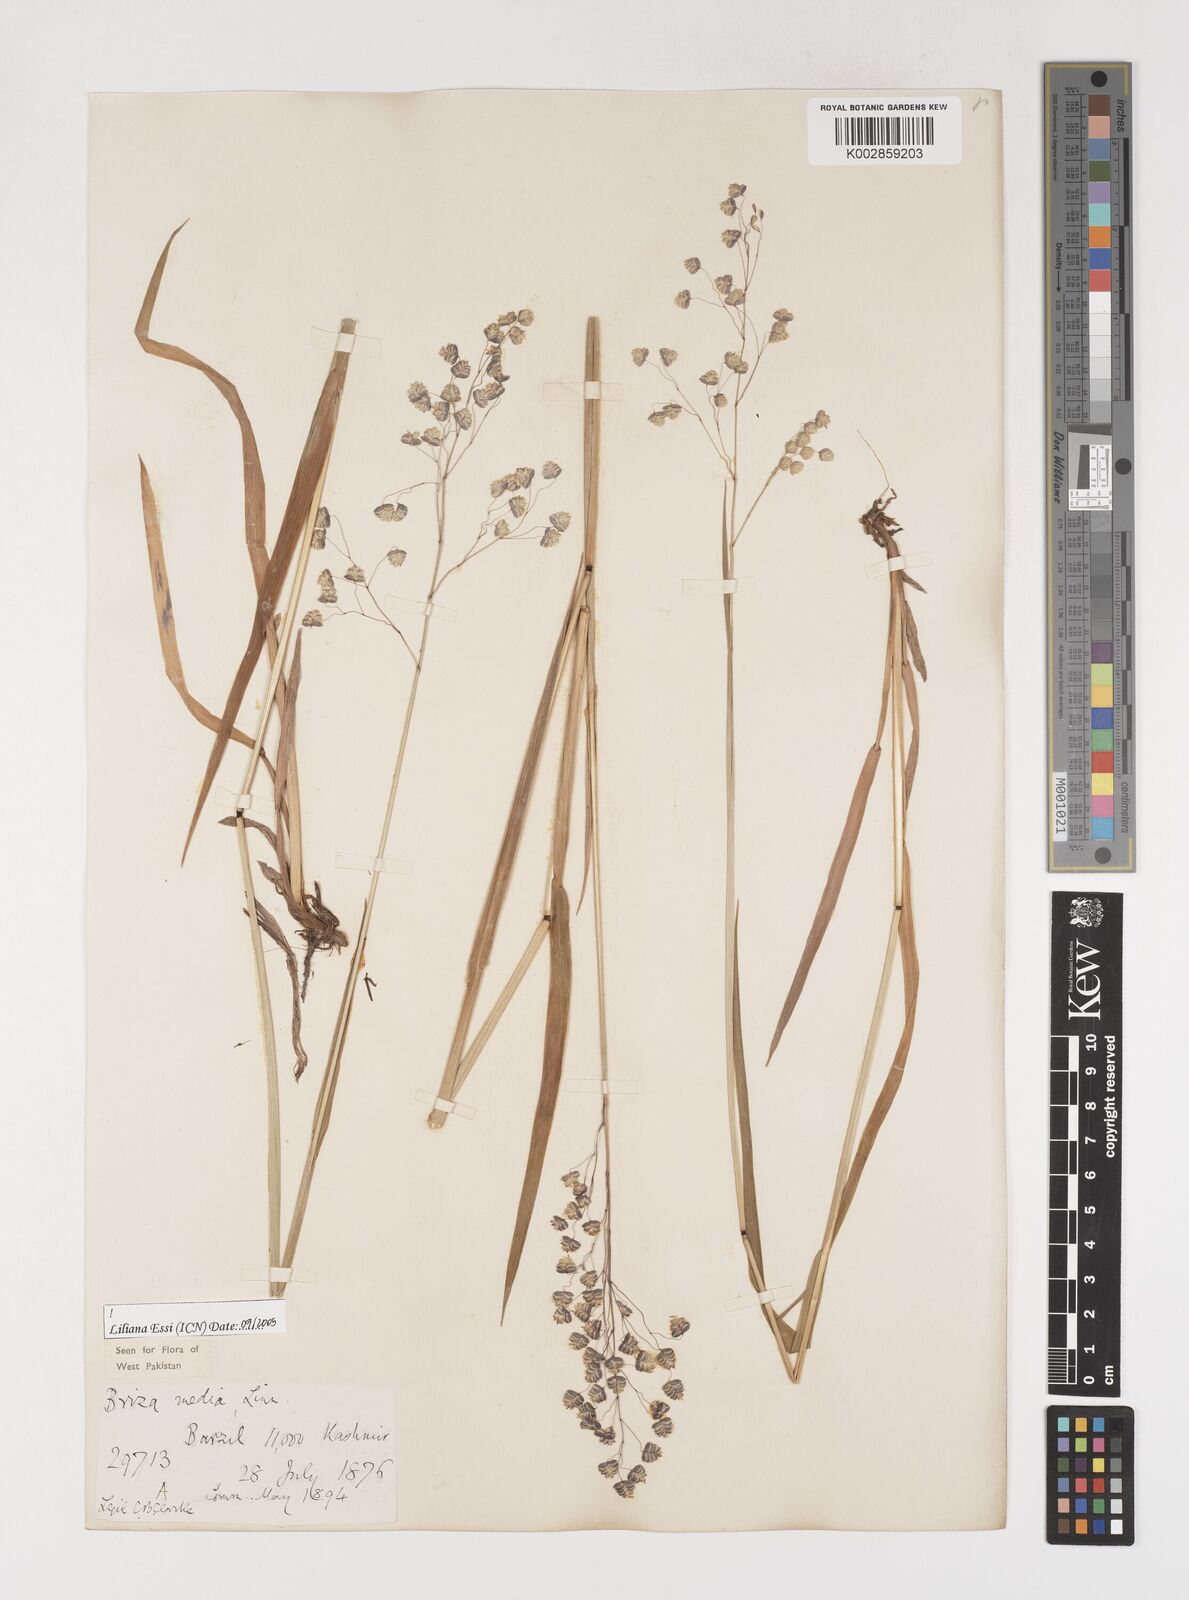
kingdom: Plantae
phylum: Tracheophyta
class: Liliopsida
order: Poales
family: Poaceae
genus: Briza
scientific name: Briza media
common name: Quaking grass
